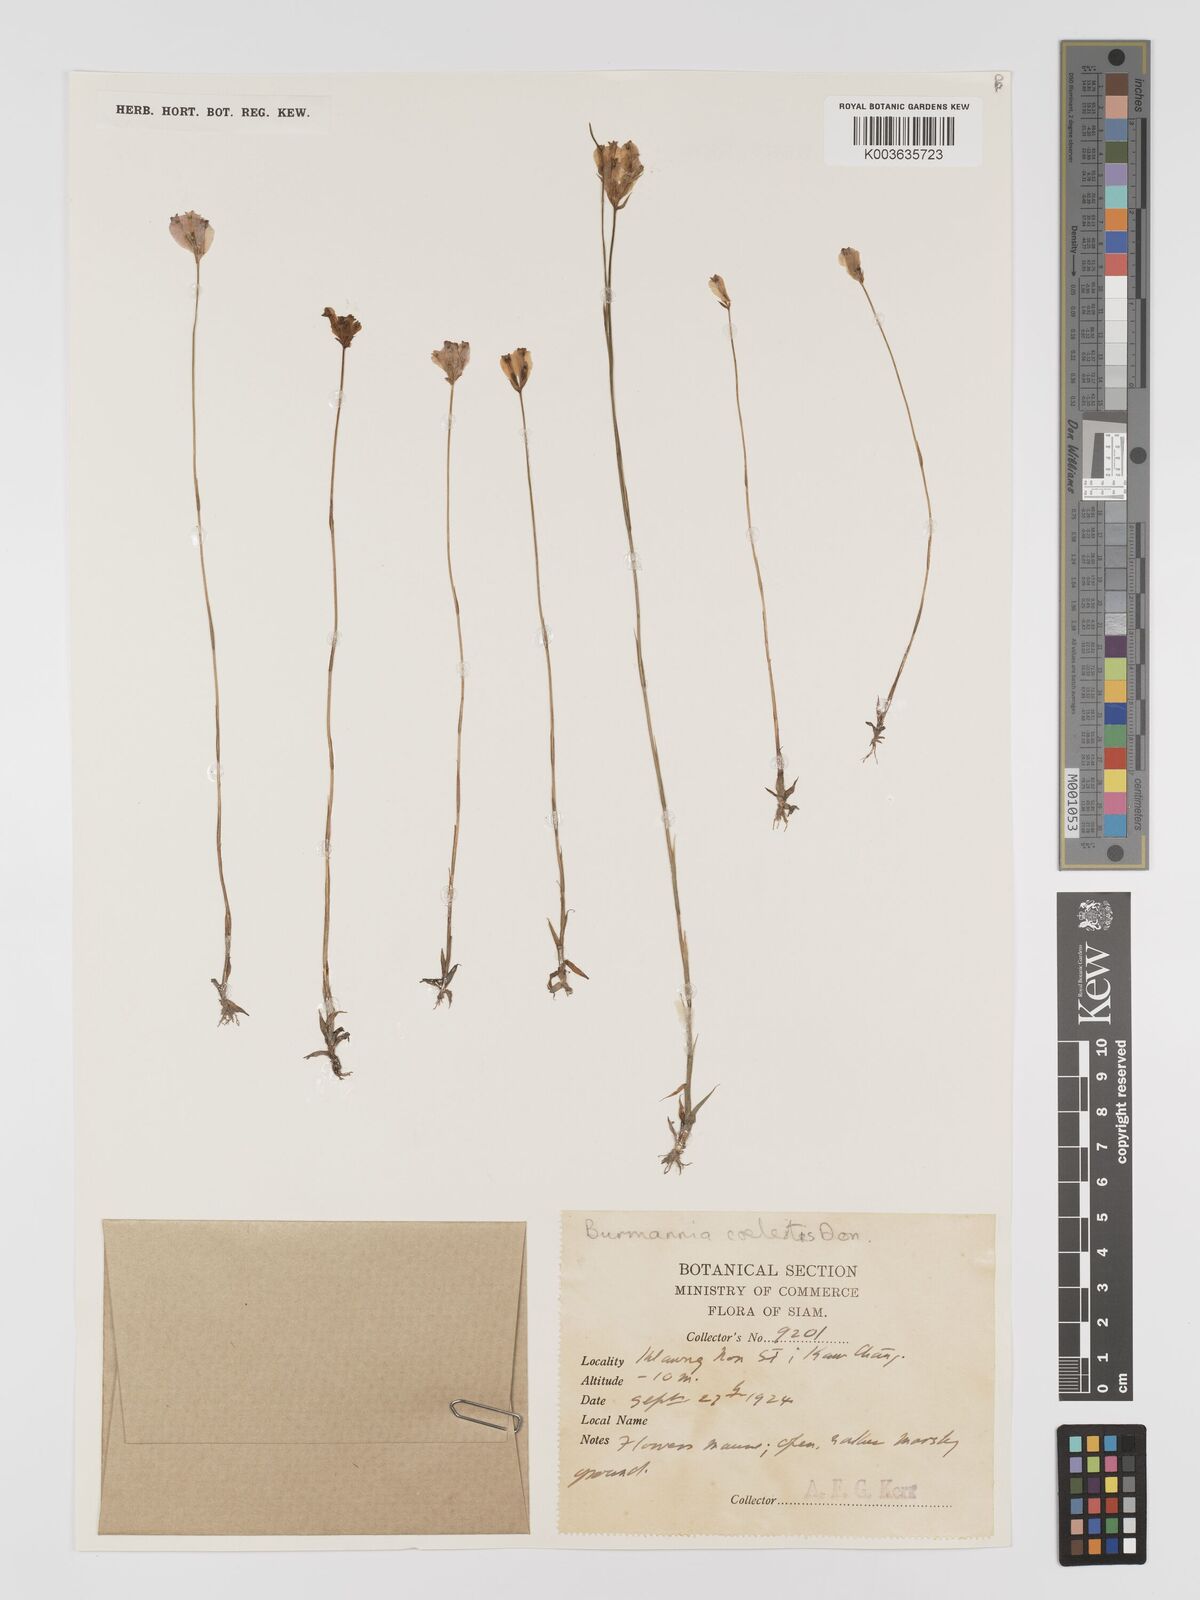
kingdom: Plantae
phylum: Tracheophyta
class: Liliopsida
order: Dioscoreales
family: Burmanniaceae
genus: Burmannia
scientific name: Burmannia coelestis
